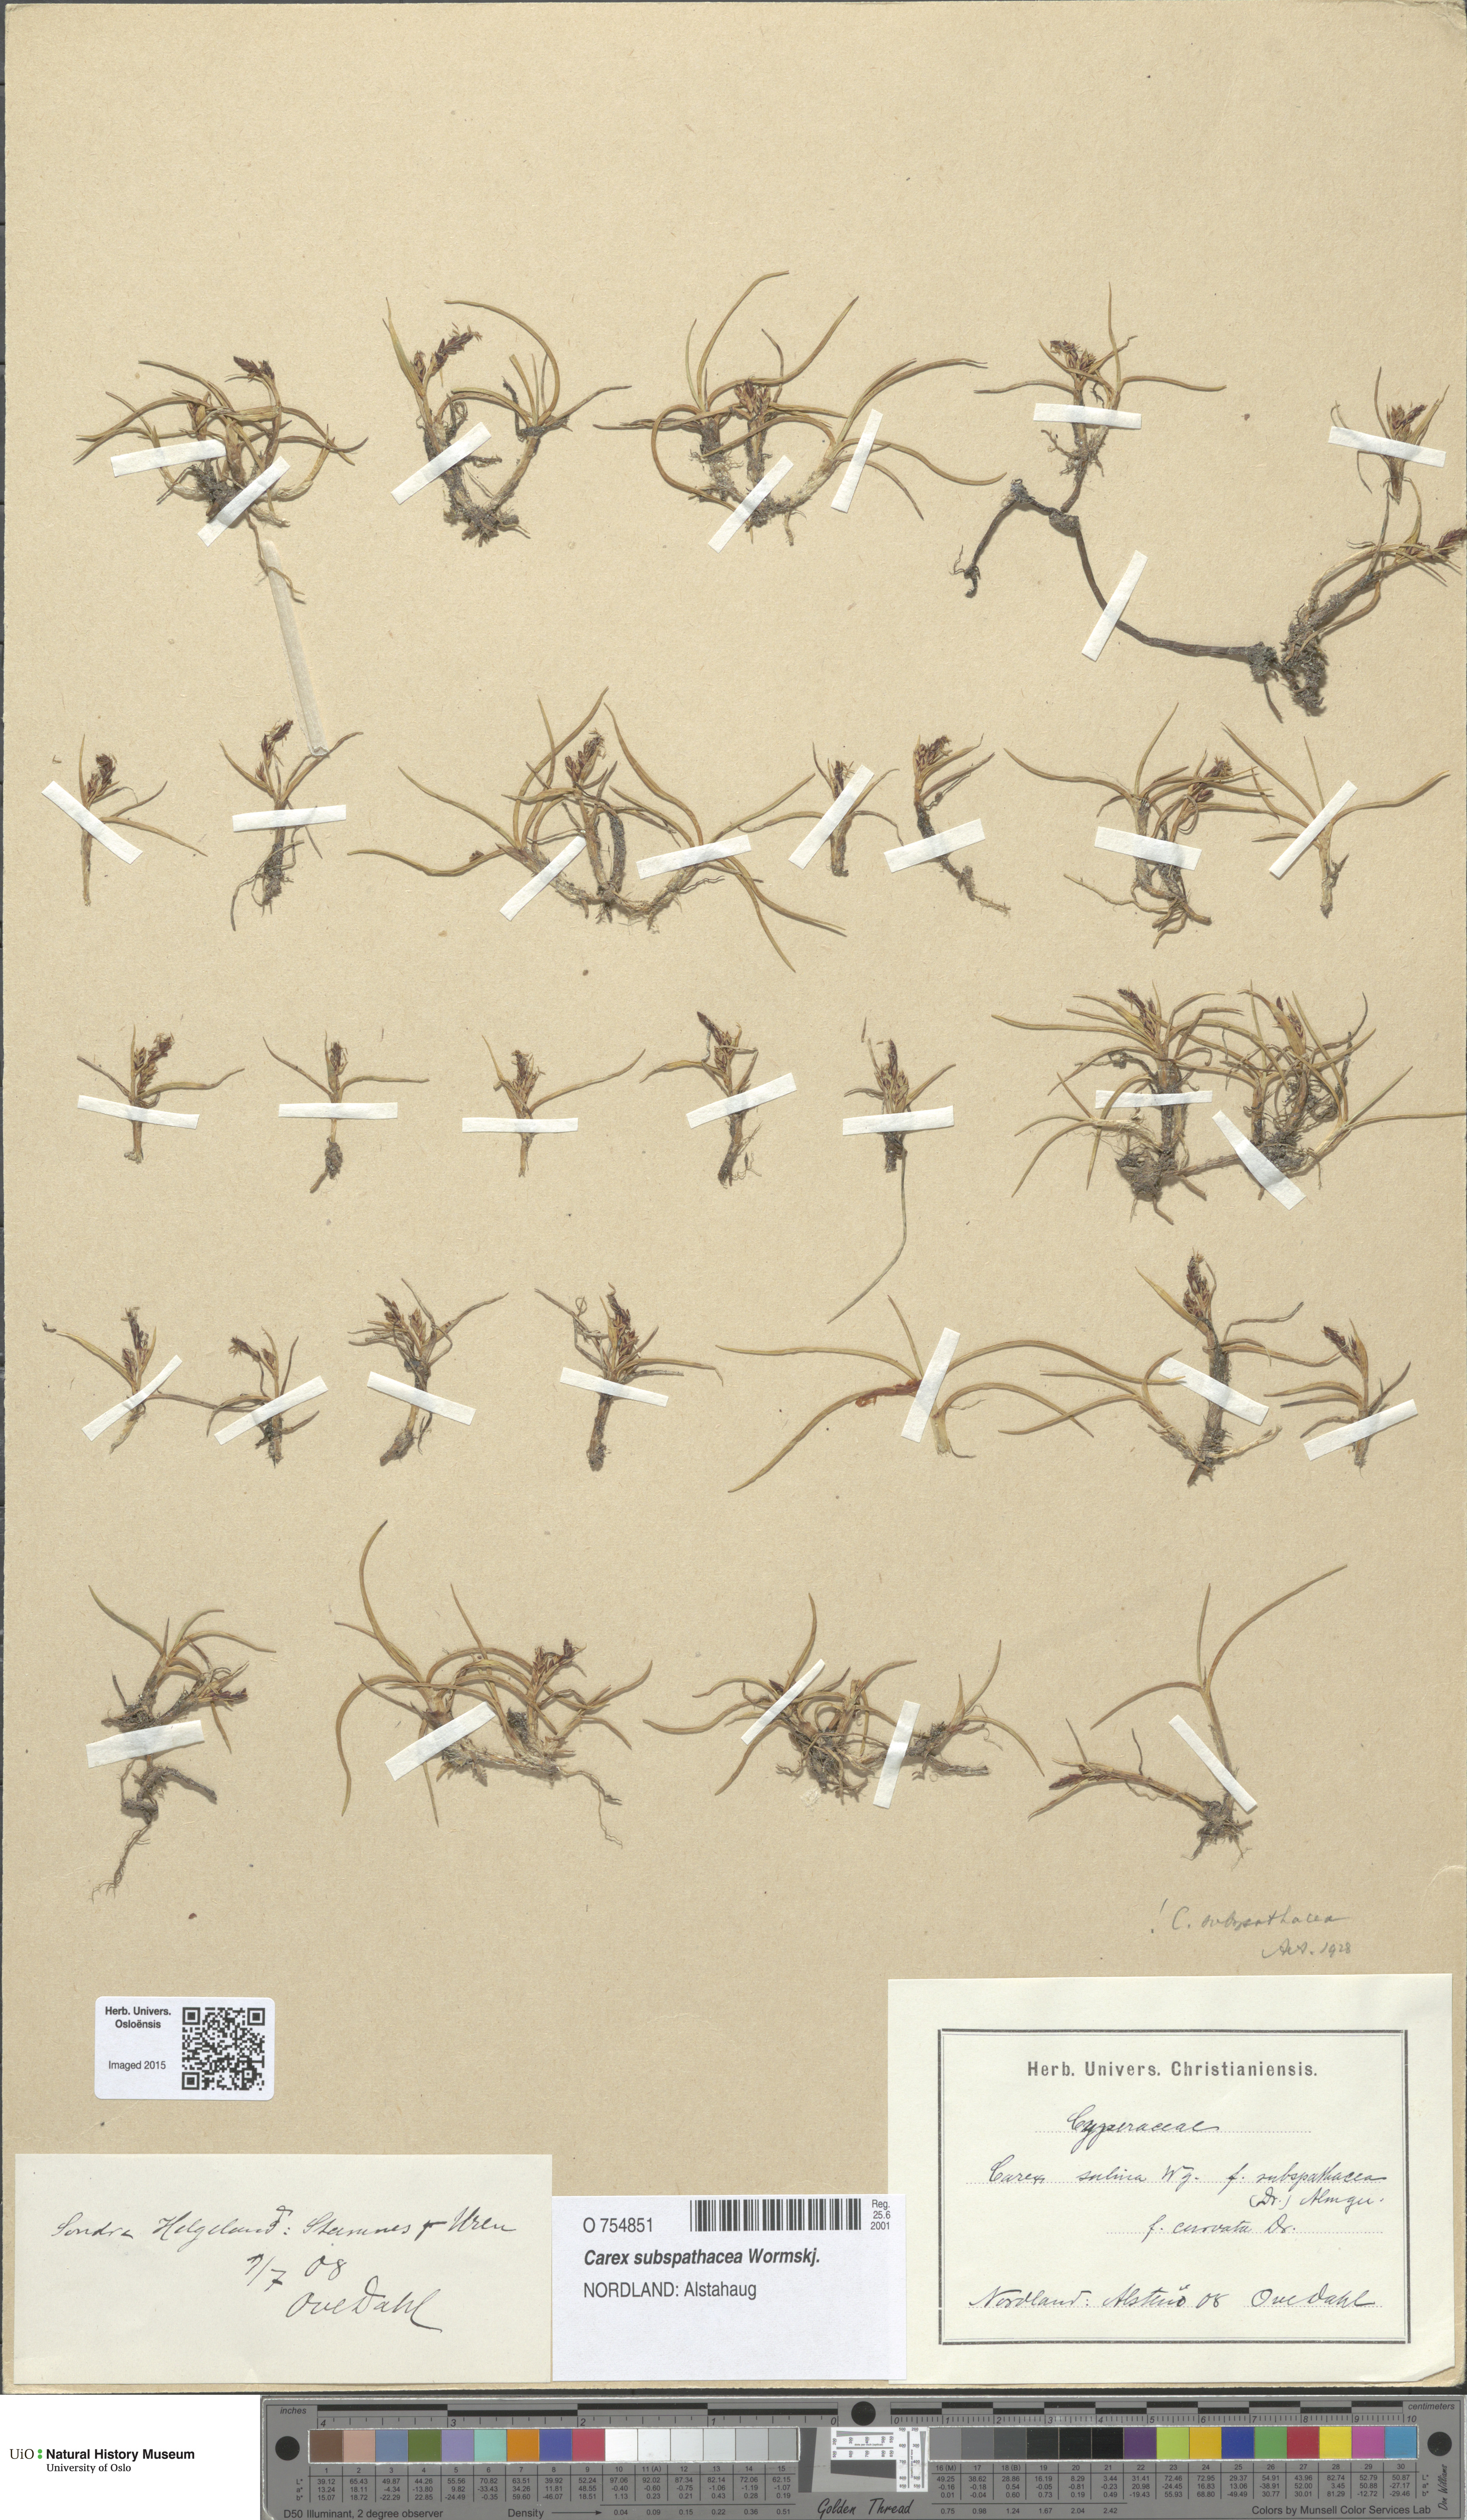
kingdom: Plantae
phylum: Tracheophyta
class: Liliopsida
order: Poales
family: Cyperaceae
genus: Carex
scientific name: Carex subspathacea
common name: Hoppner's sedge
